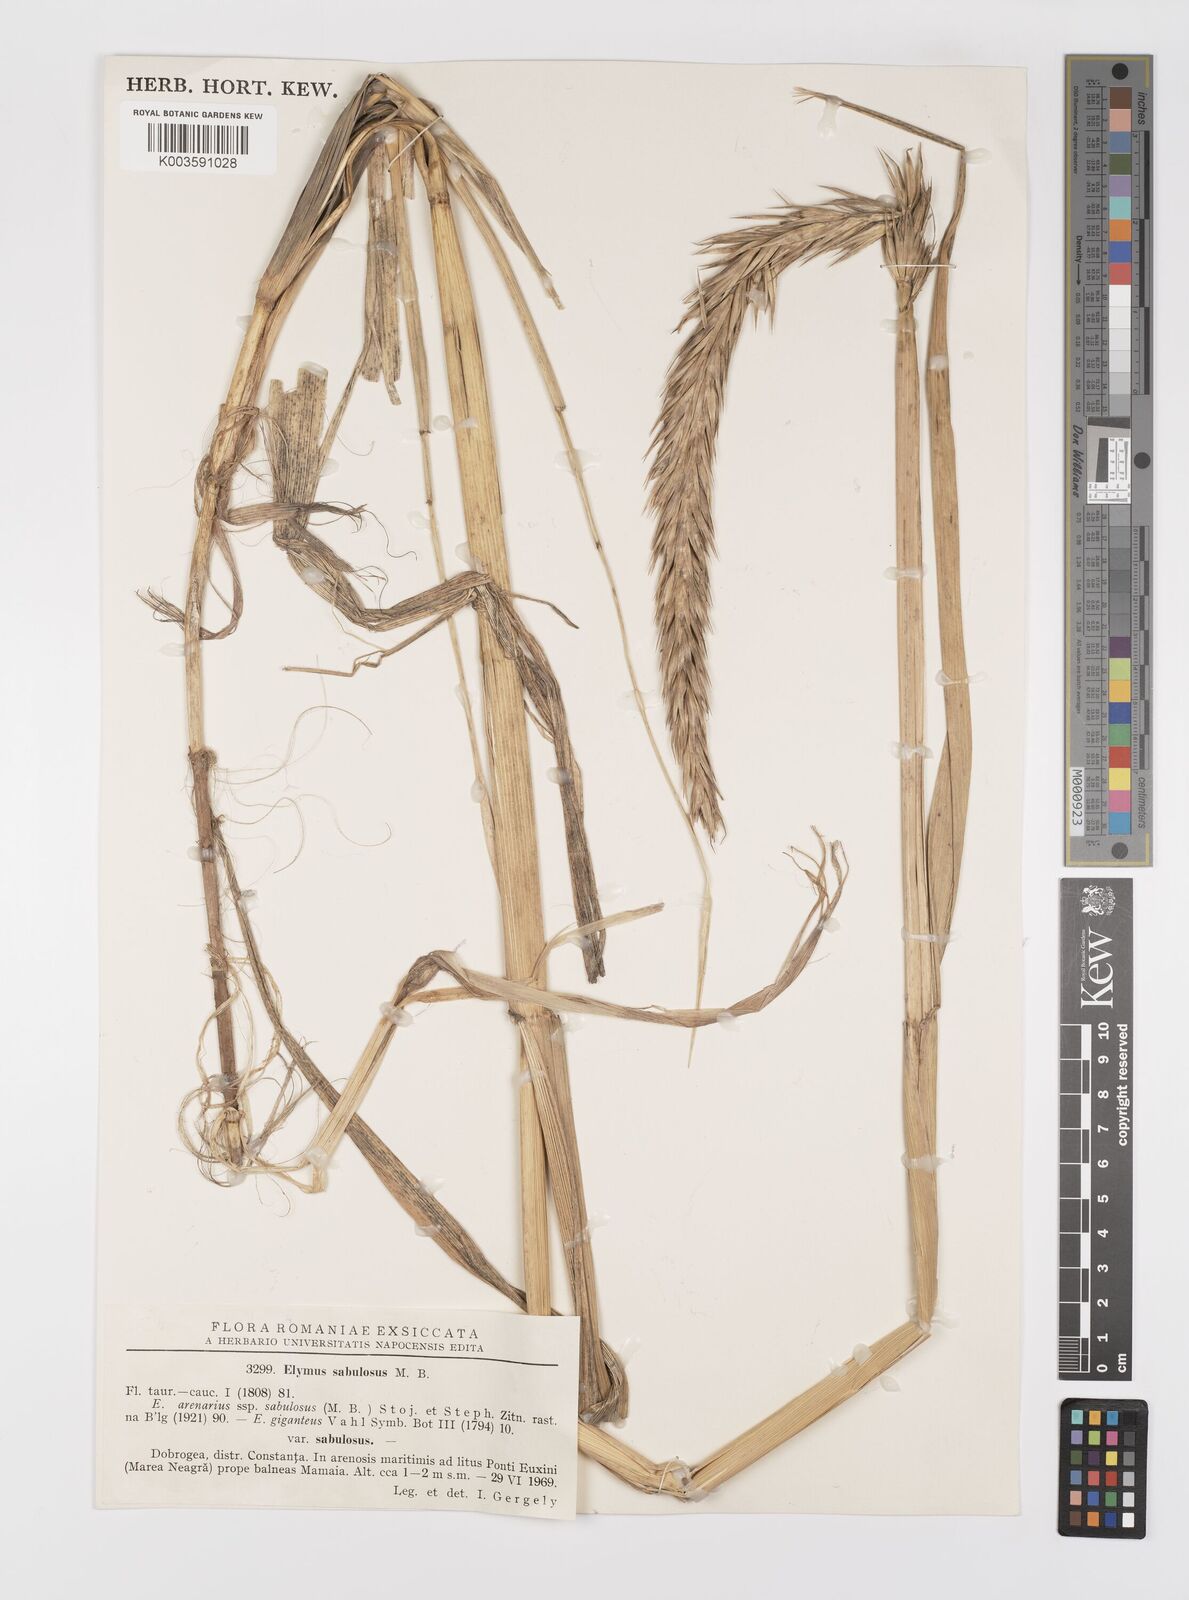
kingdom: Plantae
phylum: Tracheophyta
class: Liliopsida
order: Poales
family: Poaceae
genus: Leymus
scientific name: Leymus racemosus
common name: Mammoth wildrye
